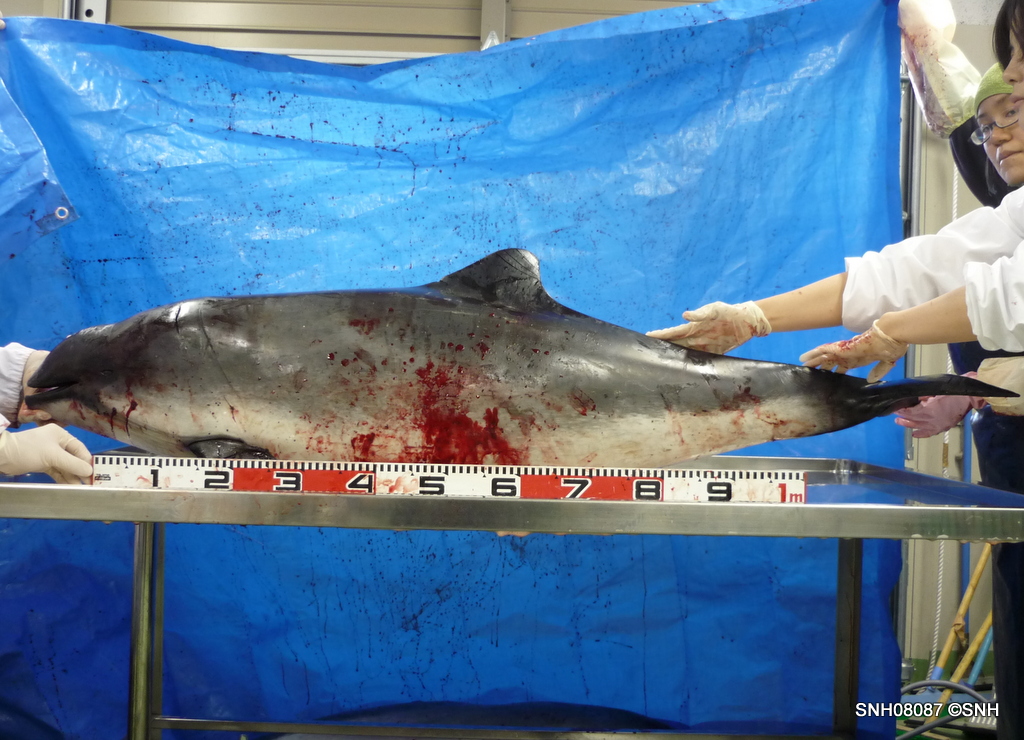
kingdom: Animalia
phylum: Chordata
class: Mammalia
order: Cetacea
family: Phocoenidae
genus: Phocoena
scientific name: Phocoena phocoena
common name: Harbour porpoise
